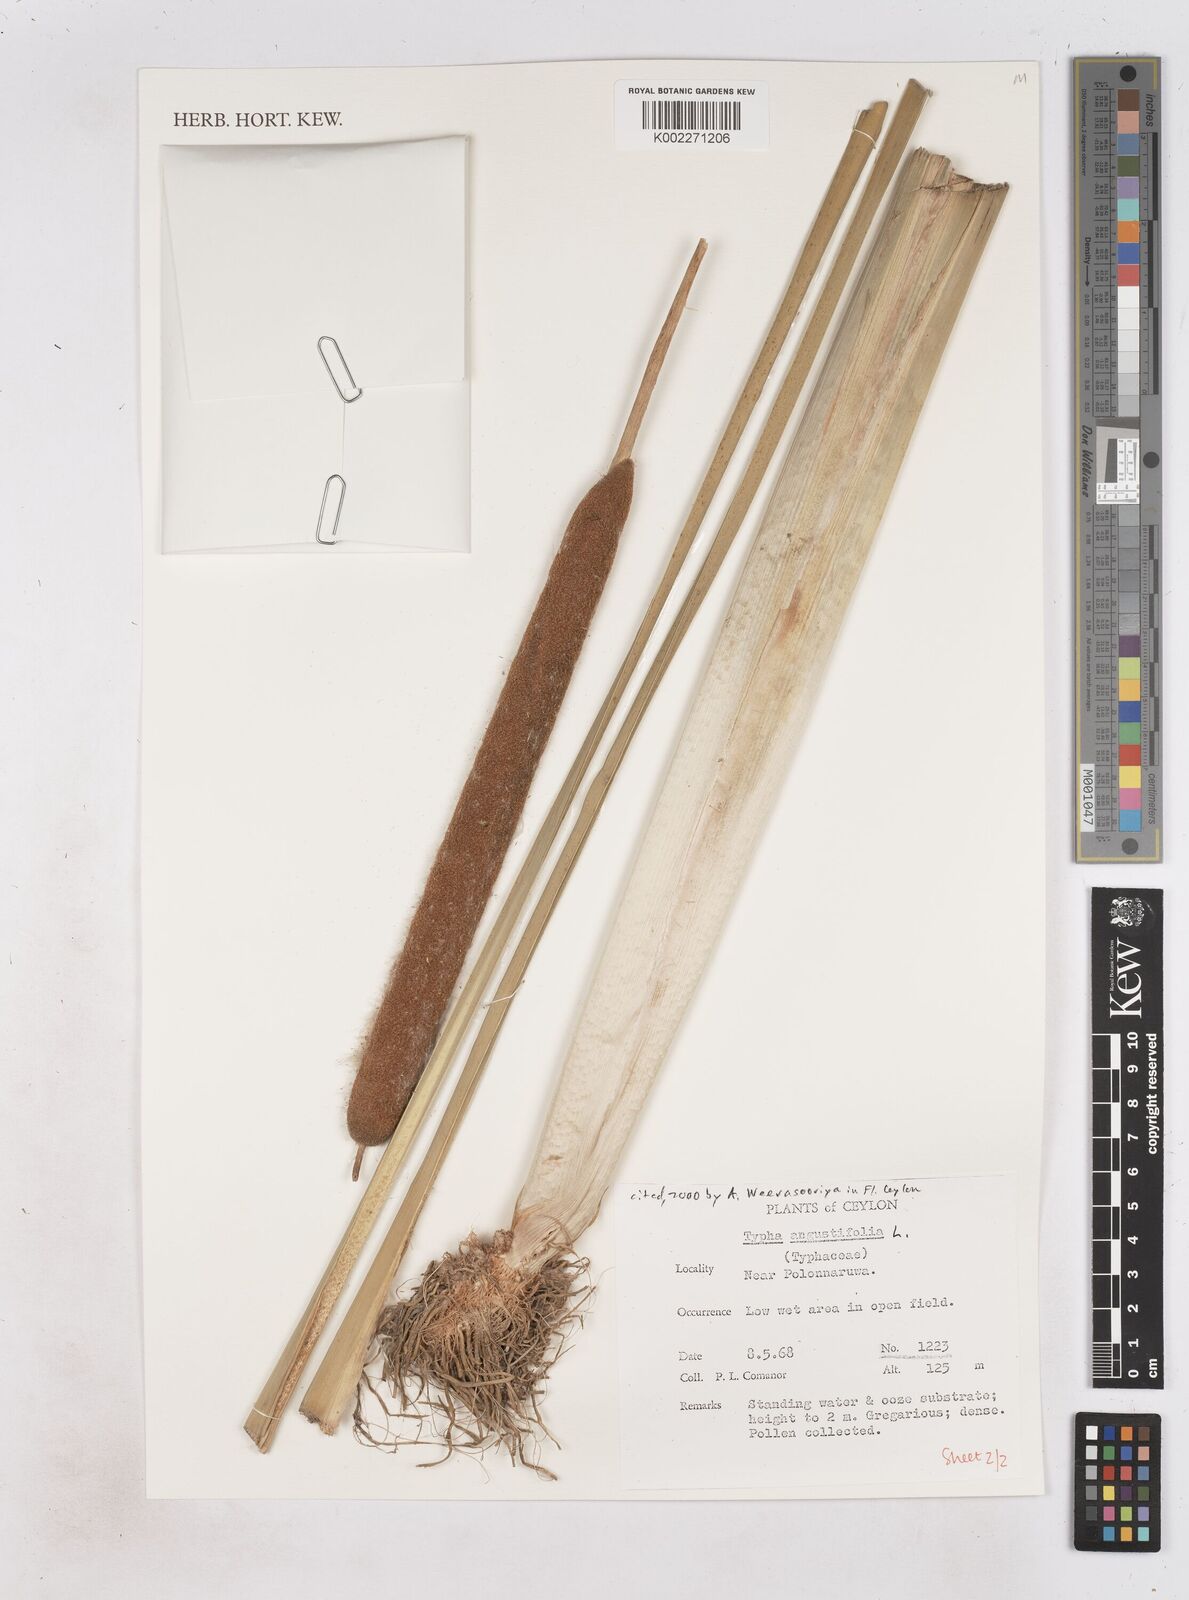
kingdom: Plantae
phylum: Tracheophyta
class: Liliopsida
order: Poales
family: Typhaceae
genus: Typha
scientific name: Typha domingensis
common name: Southern cattail
